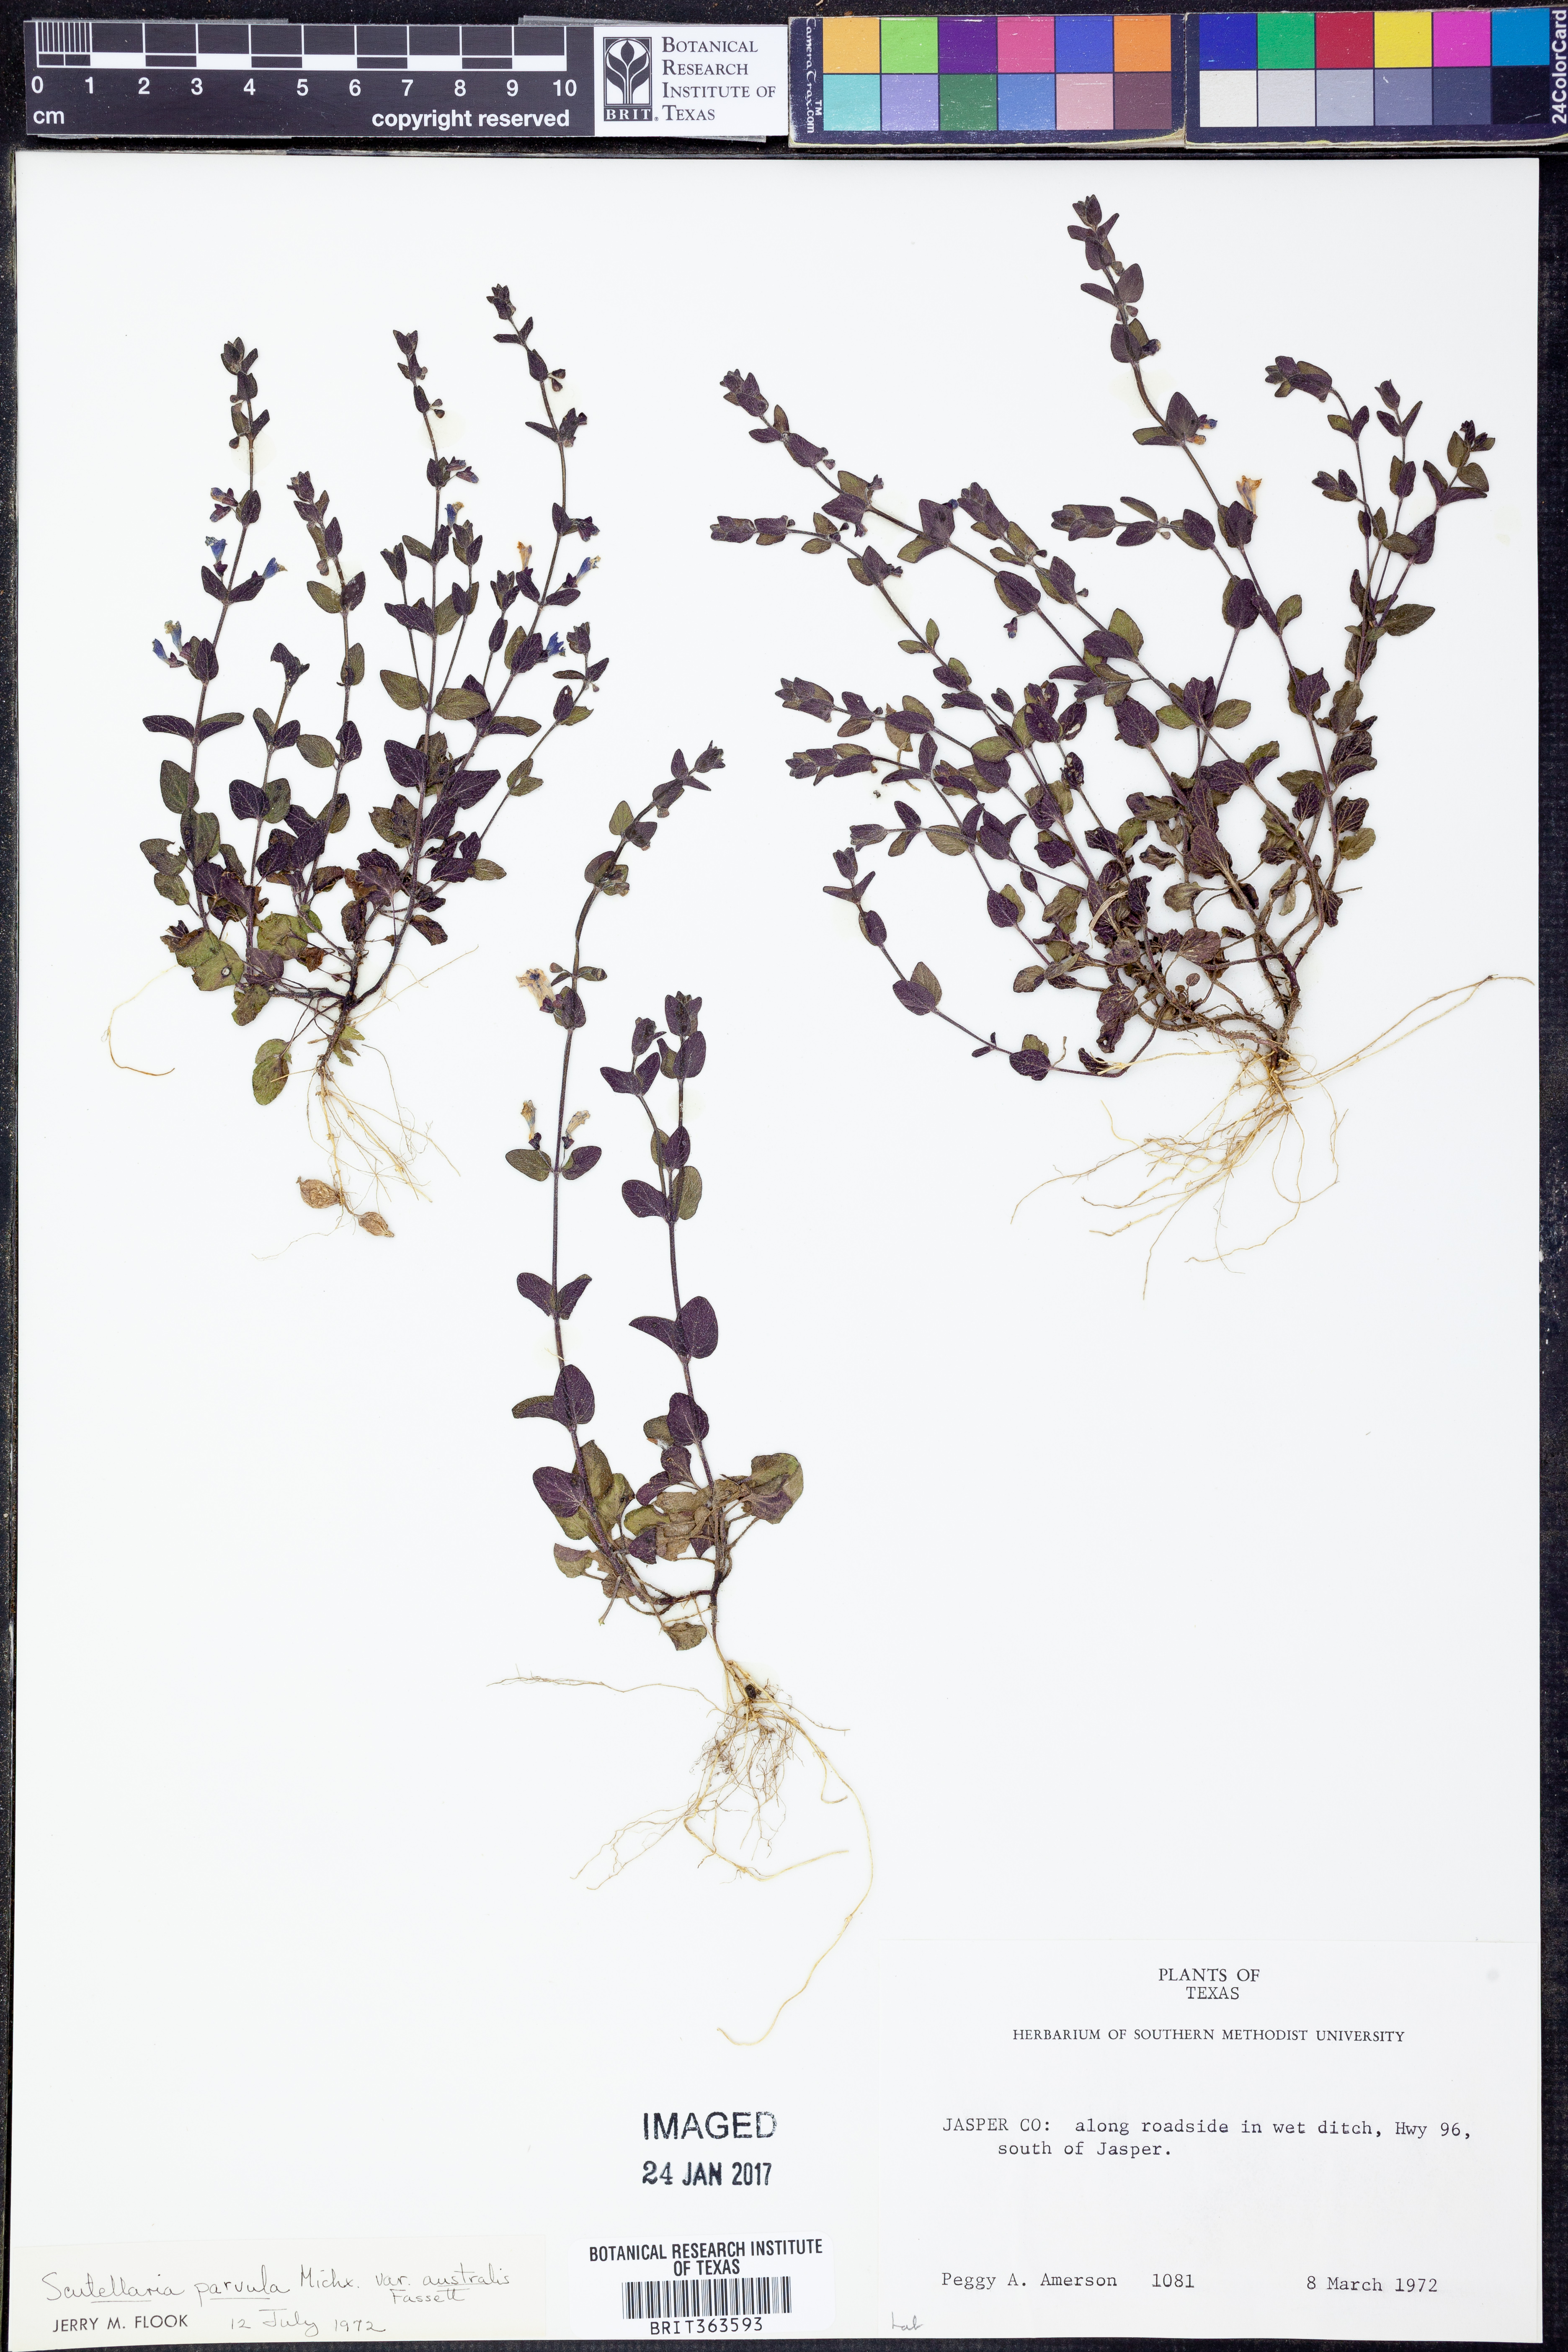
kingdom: Plantae
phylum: Tracheophyta
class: Magnoliopsida
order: Lamiales
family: Lamiaceae
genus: Scutellaria
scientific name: Scutellaria parvula
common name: Little scullcap
